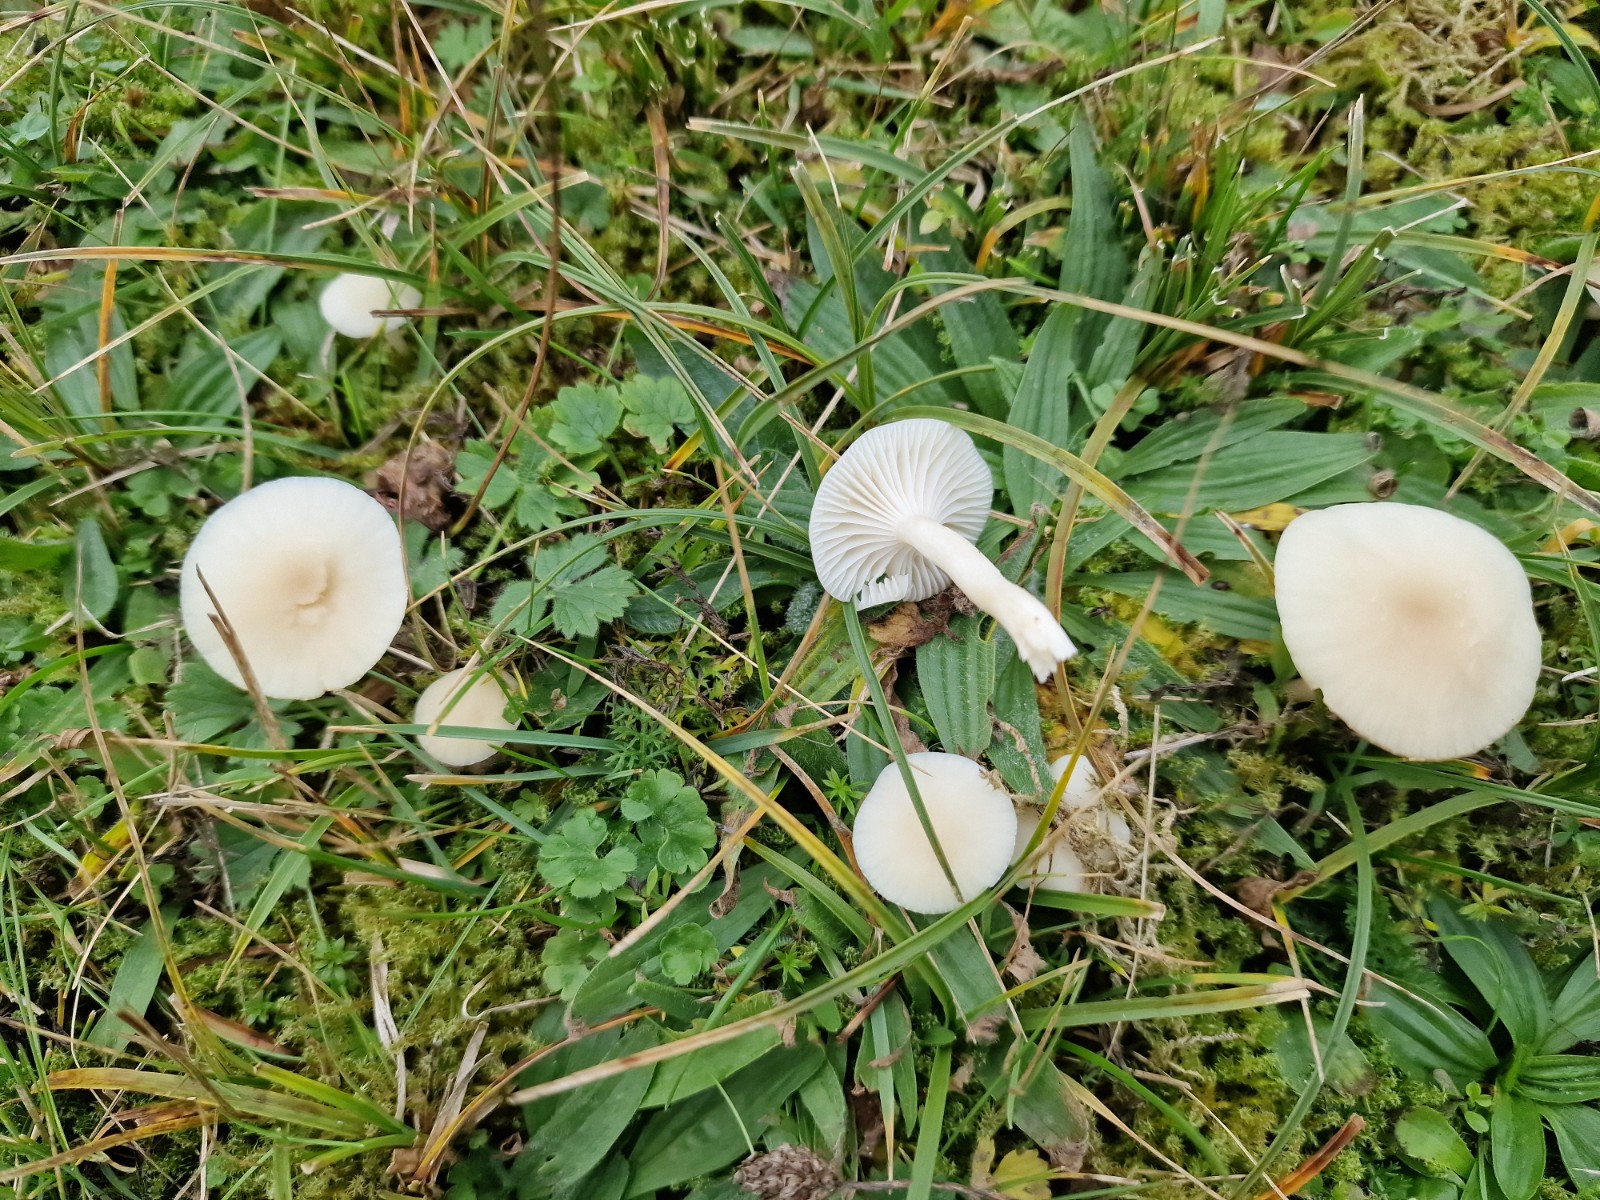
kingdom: Fungi
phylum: Basidiomycota
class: Agaricomycetes
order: Agaricales
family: Hygrophoraceae
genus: Cuphophyllus
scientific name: Cuphophyllus
